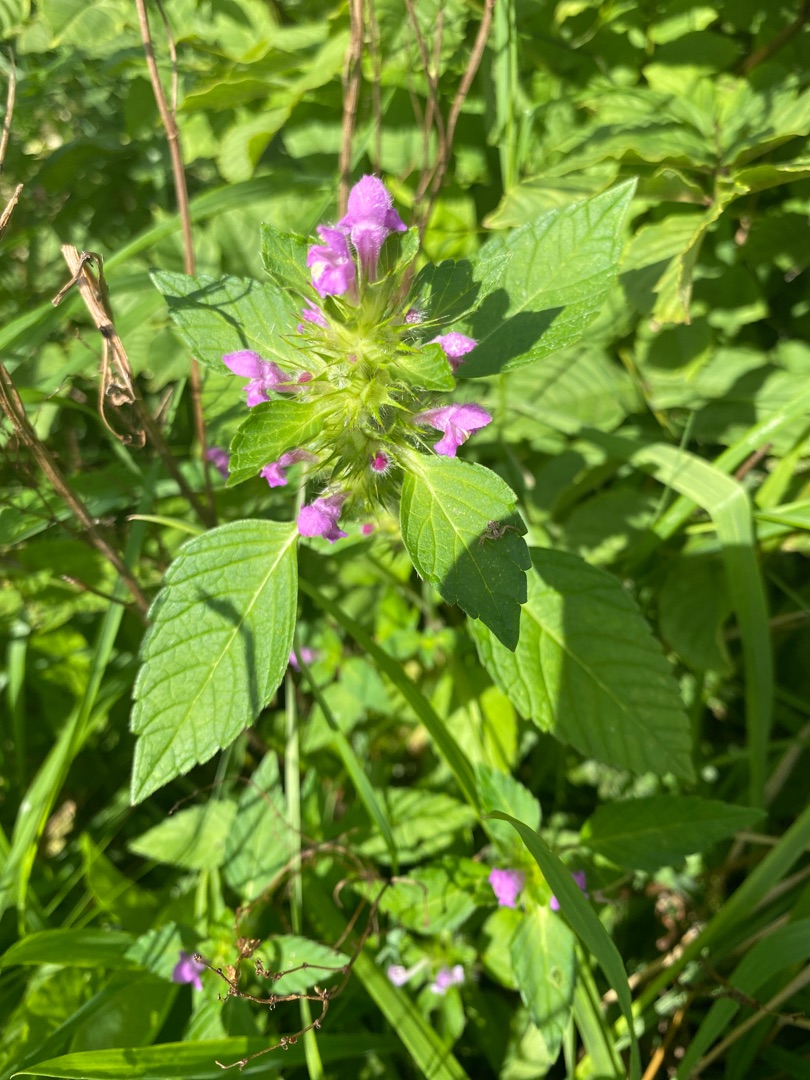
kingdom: Plantae
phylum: Tracheophyta
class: Magnoliopsida
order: Lamiales
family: Lamiaceae
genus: Galeopsis
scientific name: Galeopsis
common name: Hanekroslægten
